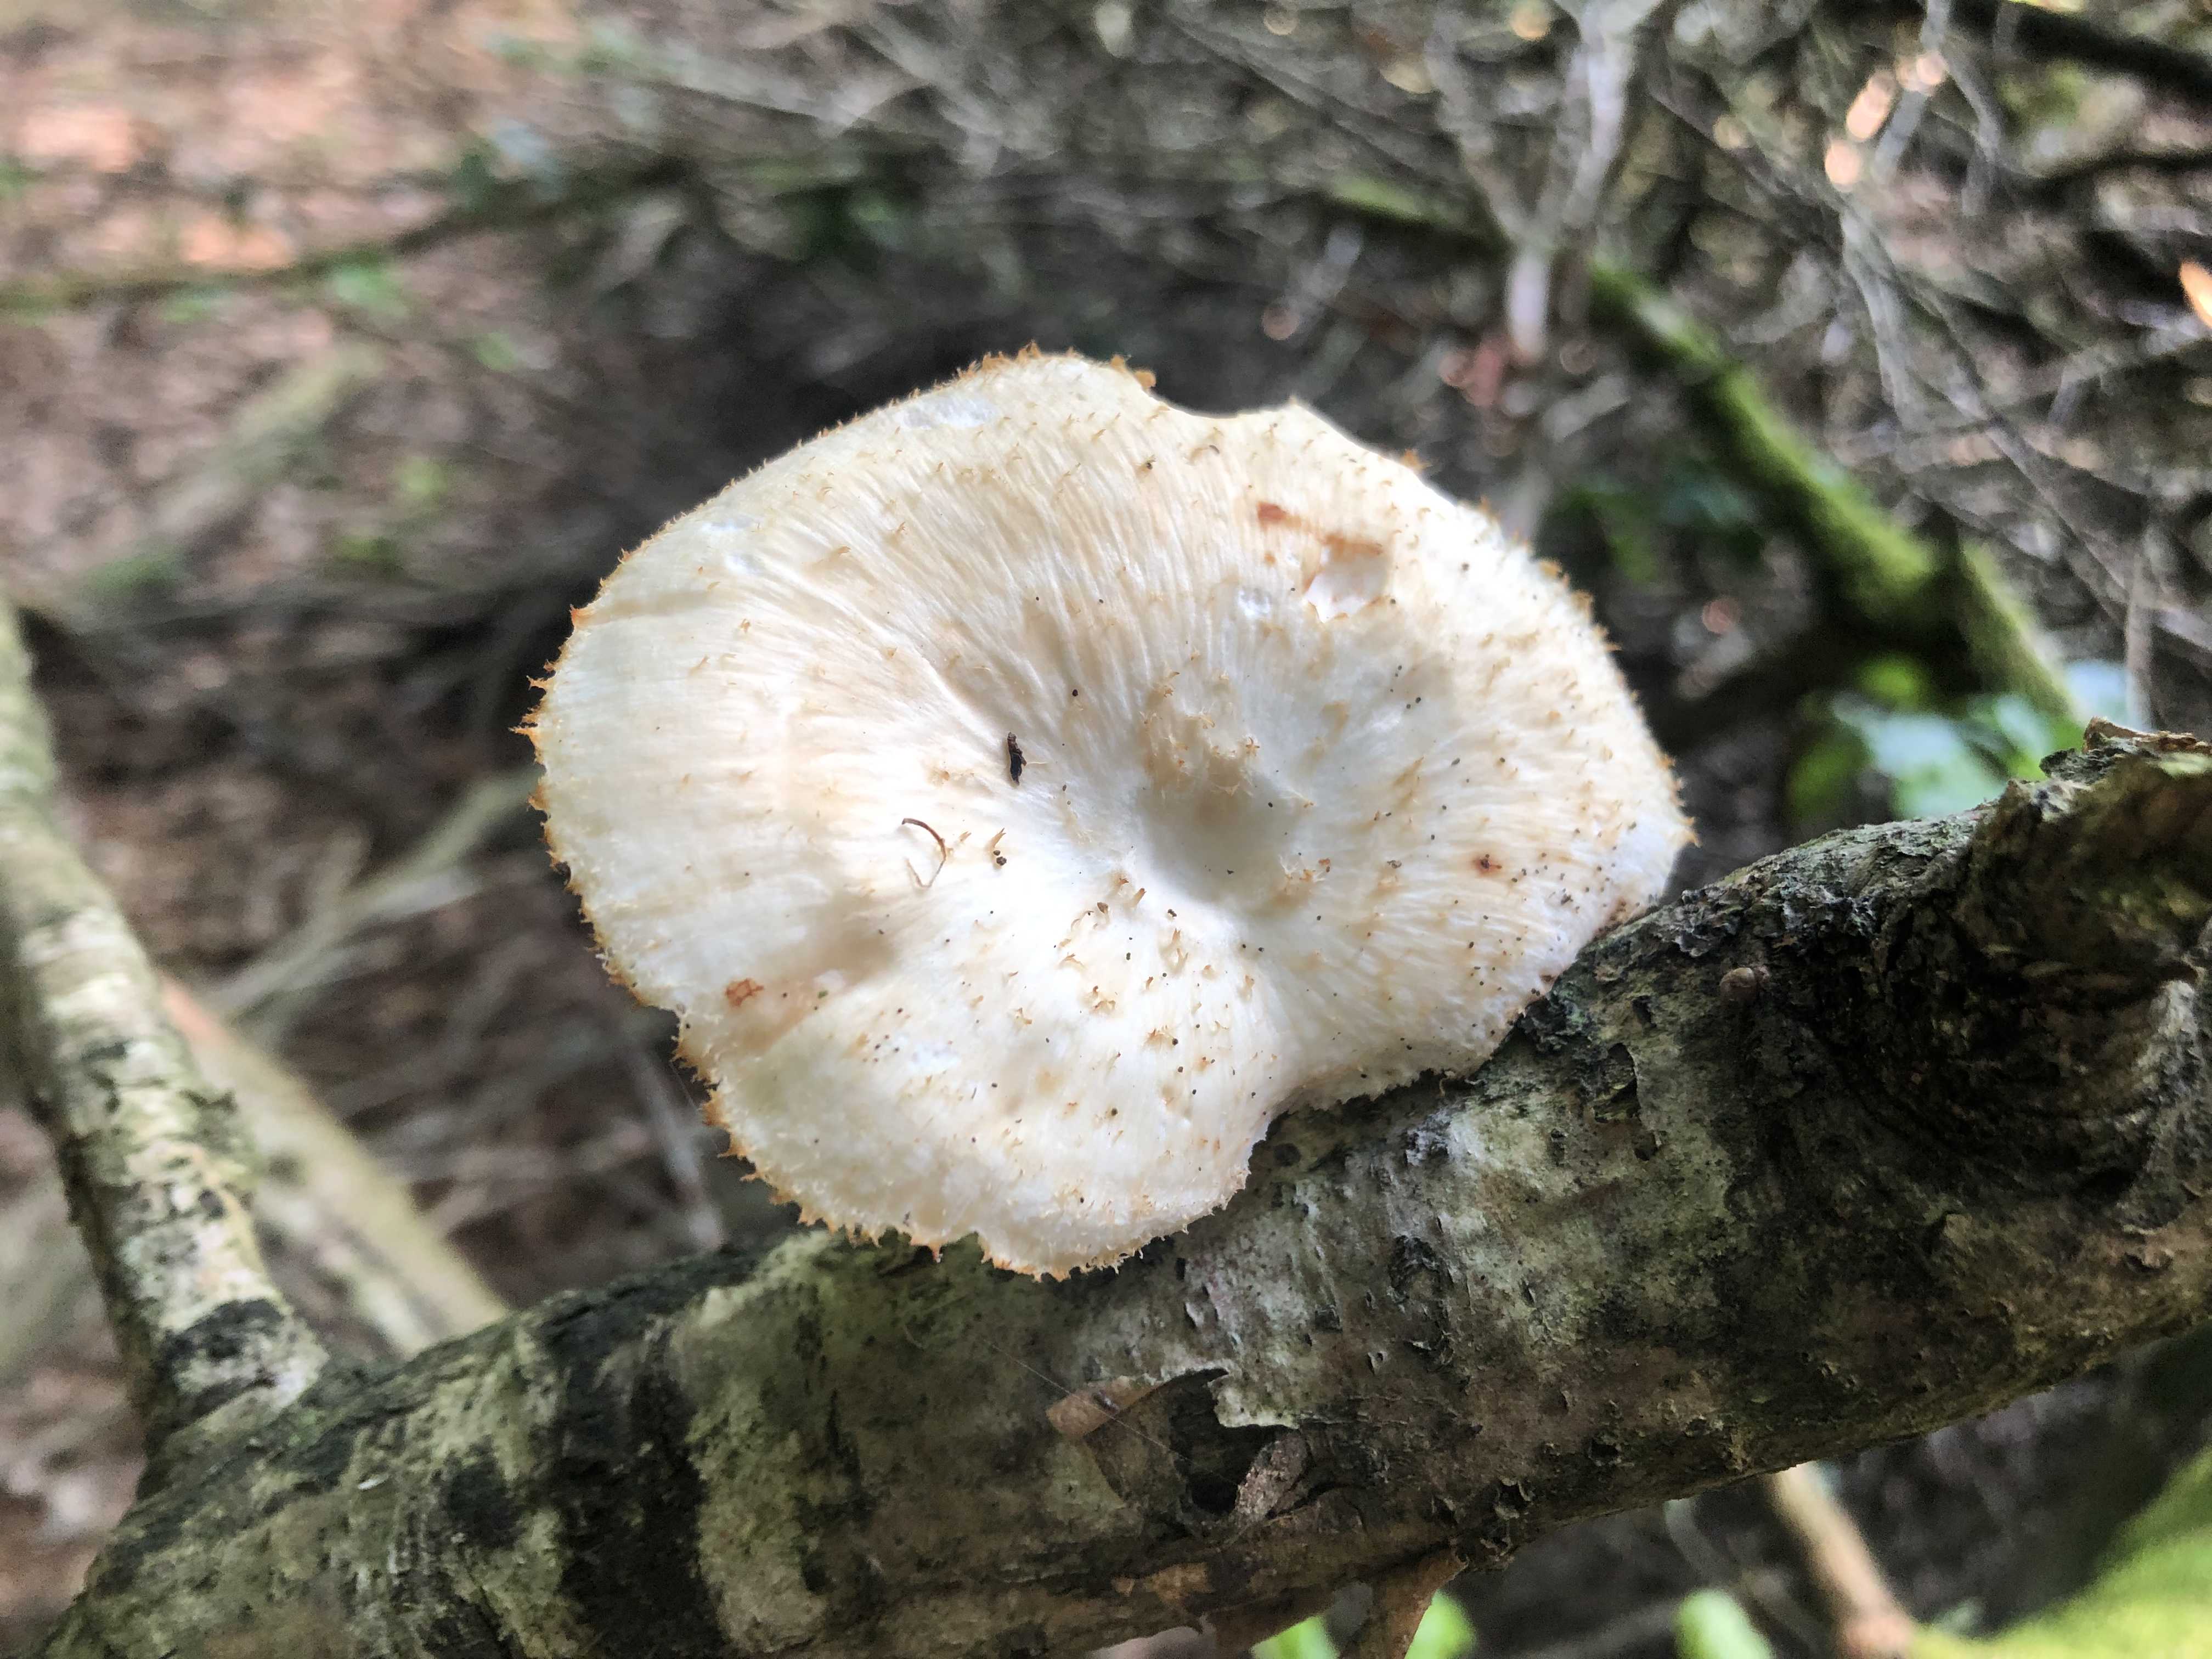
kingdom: Fungi
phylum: Basidiomycota
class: Agaricomycetes
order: Polyporales
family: Polyporaceae
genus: Polyporus
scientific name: Polyporus tuberaster
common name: knoldet stilkporesvamp
